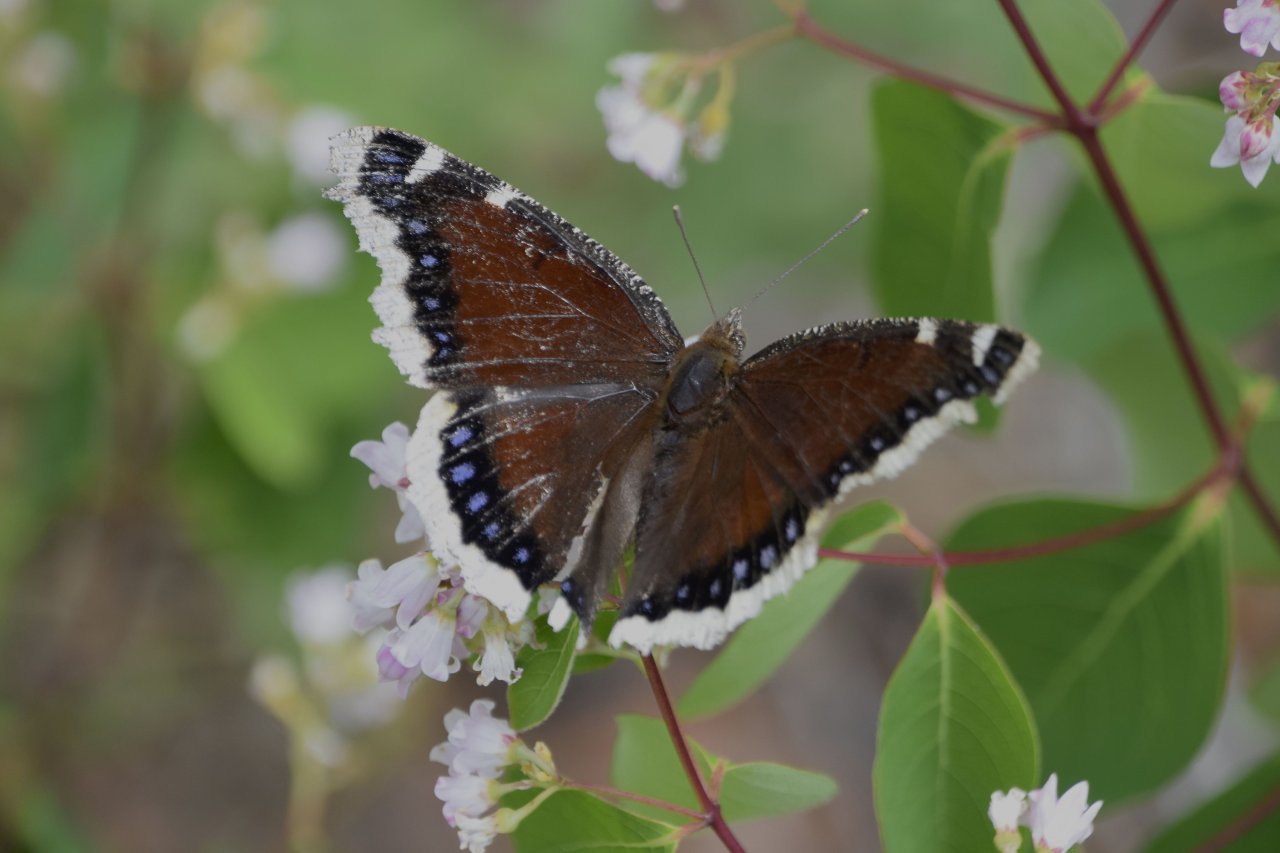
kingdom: Animalia
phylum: Arthropoda
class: Insecta
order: Lepidoptera
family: Nymphalidae
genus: Nymphalis
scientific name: Nymphalis antiopa
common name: Mourning Cloak
